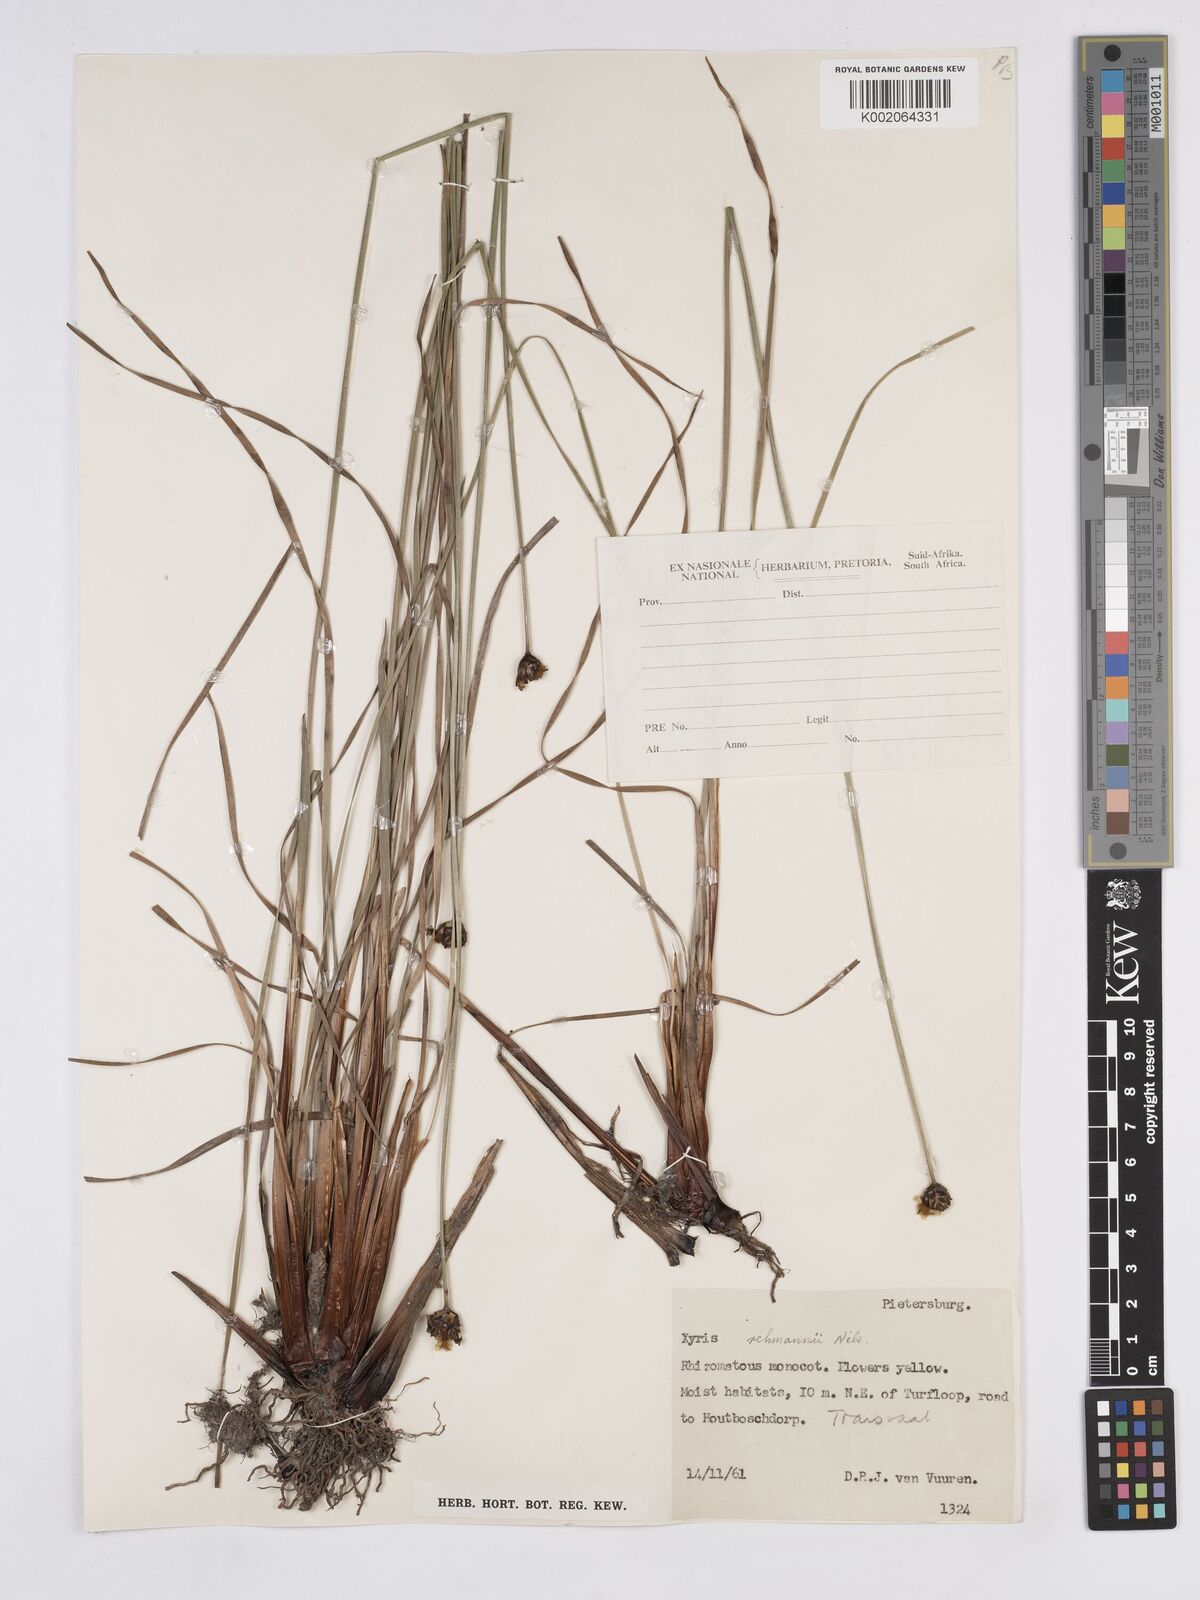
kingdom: Plantae
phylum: Tracheophyta
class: Liliopsida
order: Poales
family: Xyridaceae
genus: Xyris
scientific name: Xyris rehmannii
